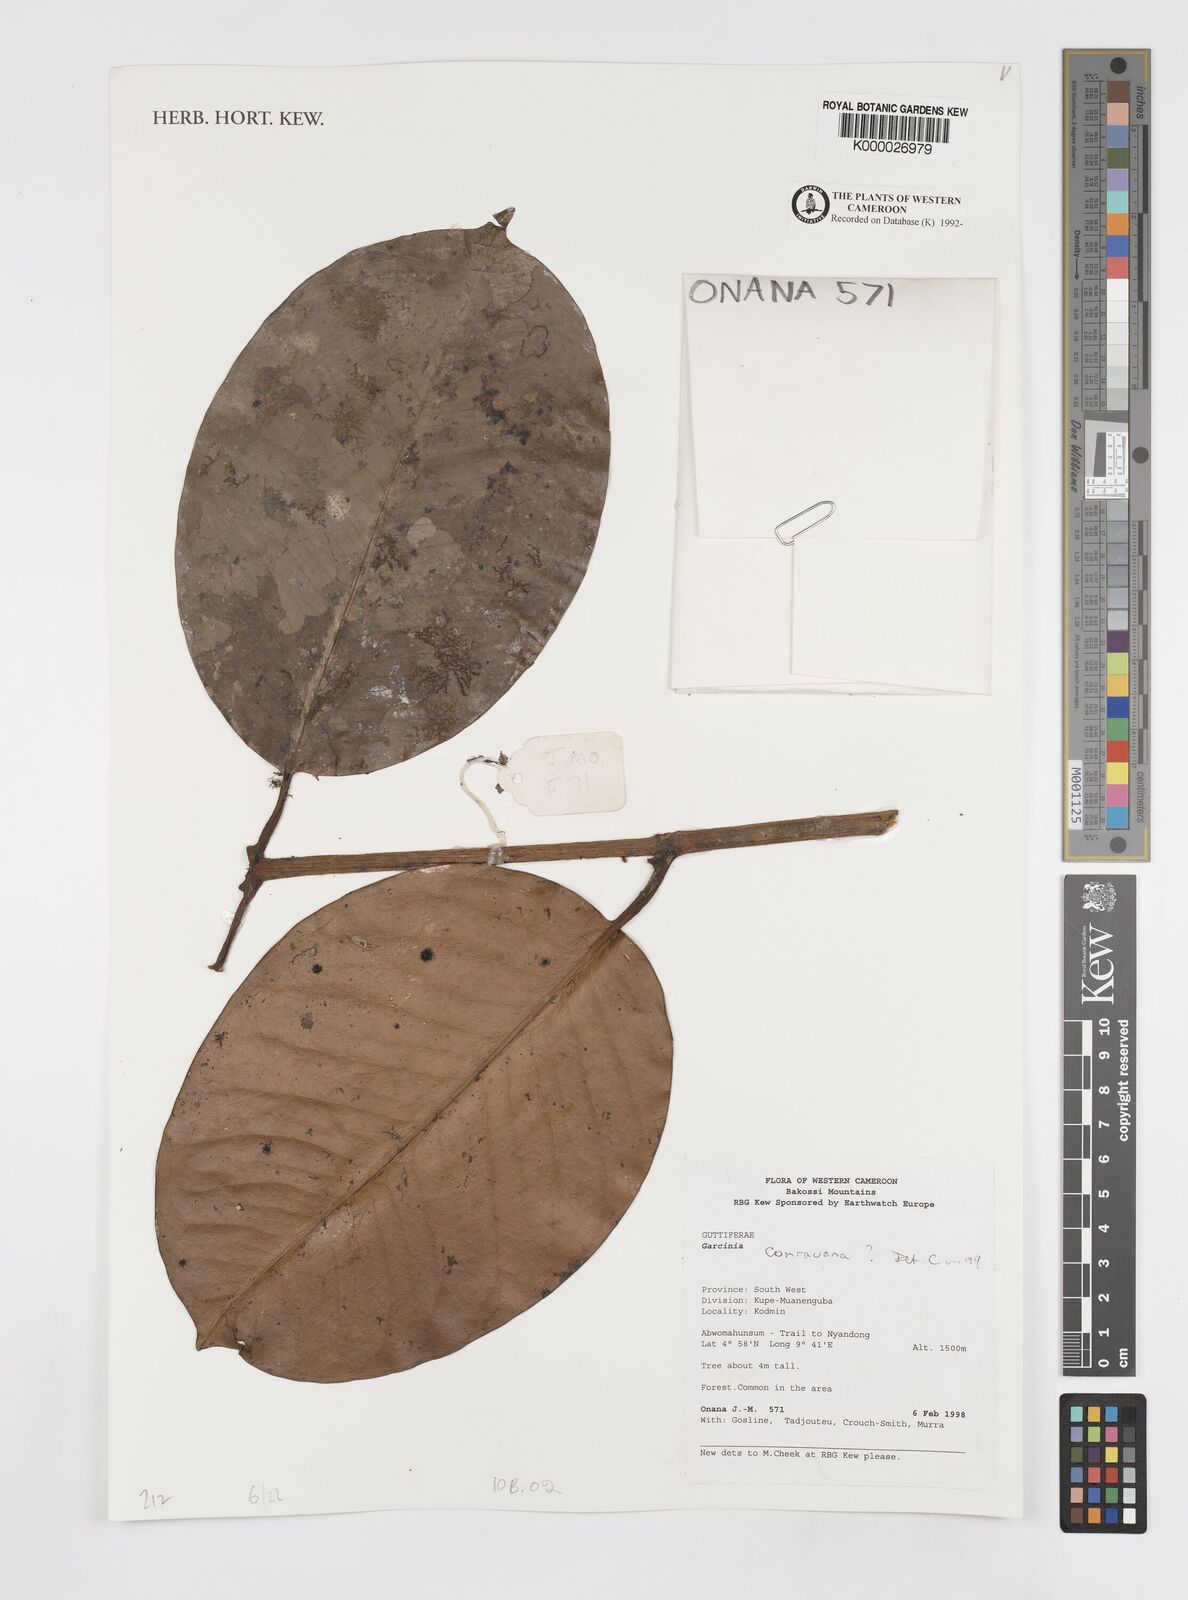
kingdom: Plantae
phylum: Tracheophyta
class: Magnoliopsida
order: Malpighiales
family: Clusiaceae
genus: Garcinia
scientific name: Garcinia conrauana
